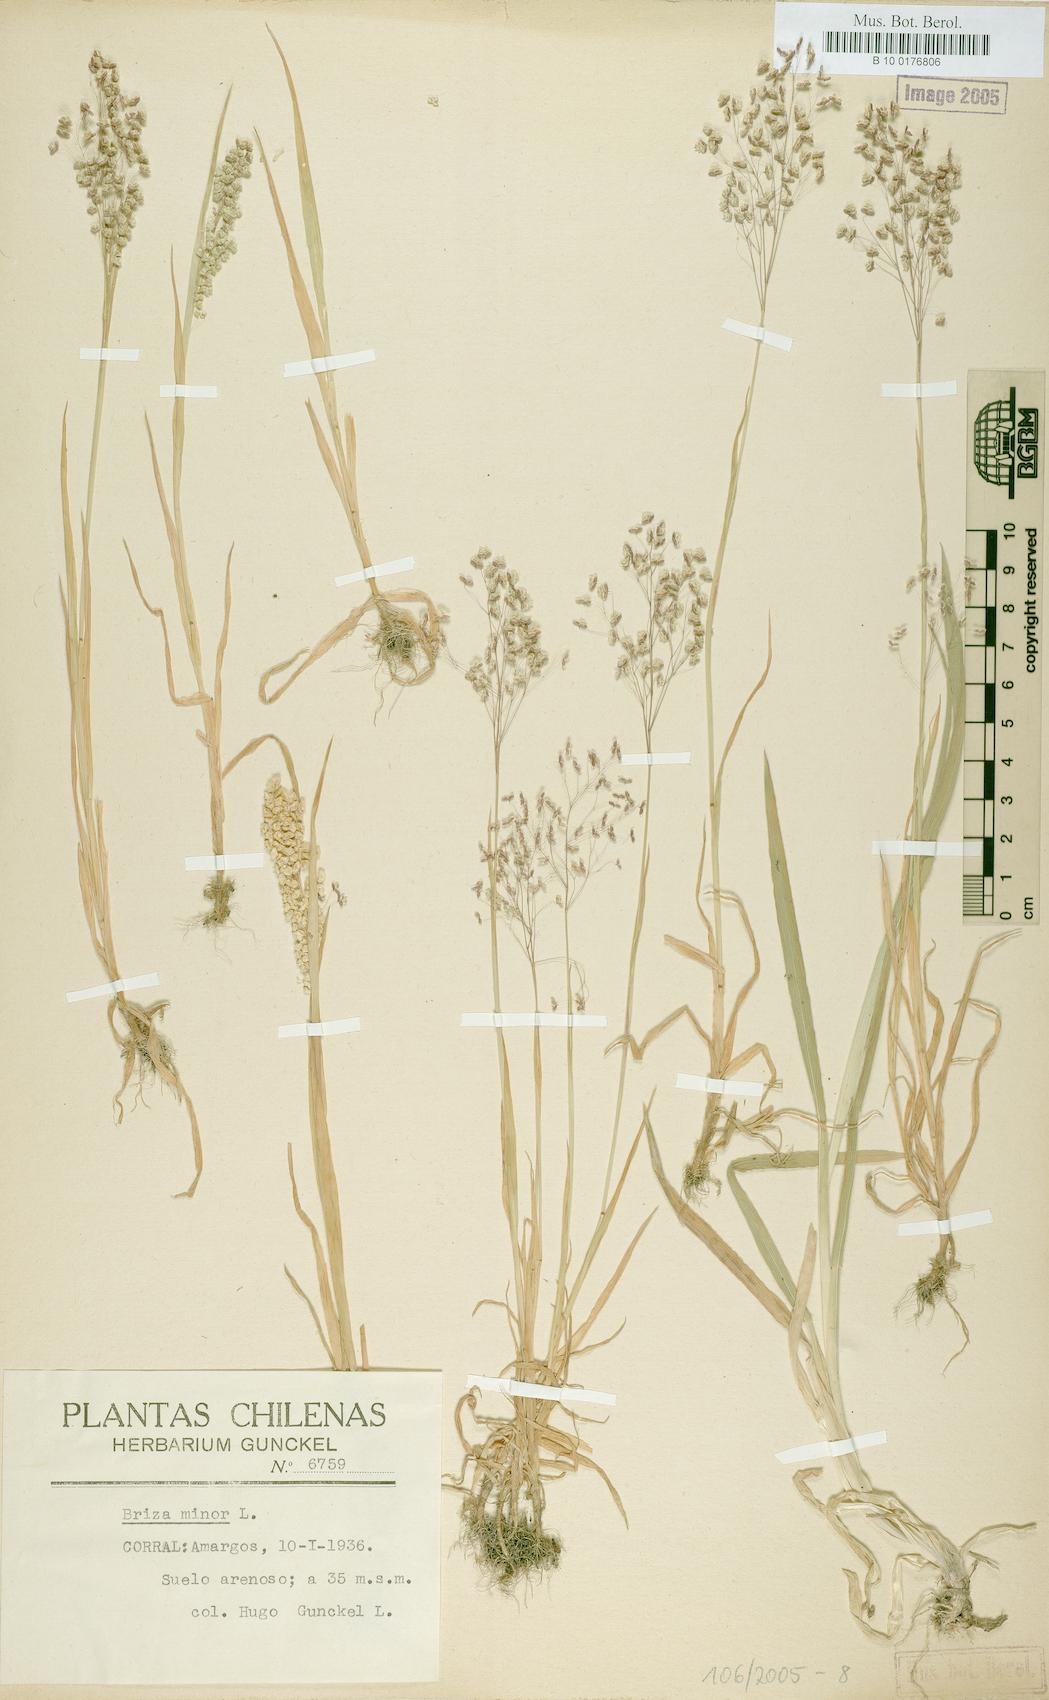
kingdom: Plantae
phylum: Tracheophyta
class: Liliopsida
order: Poales
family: Poaceae
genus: Briza
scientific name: Briza minor
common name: Lesser quaking-grass
